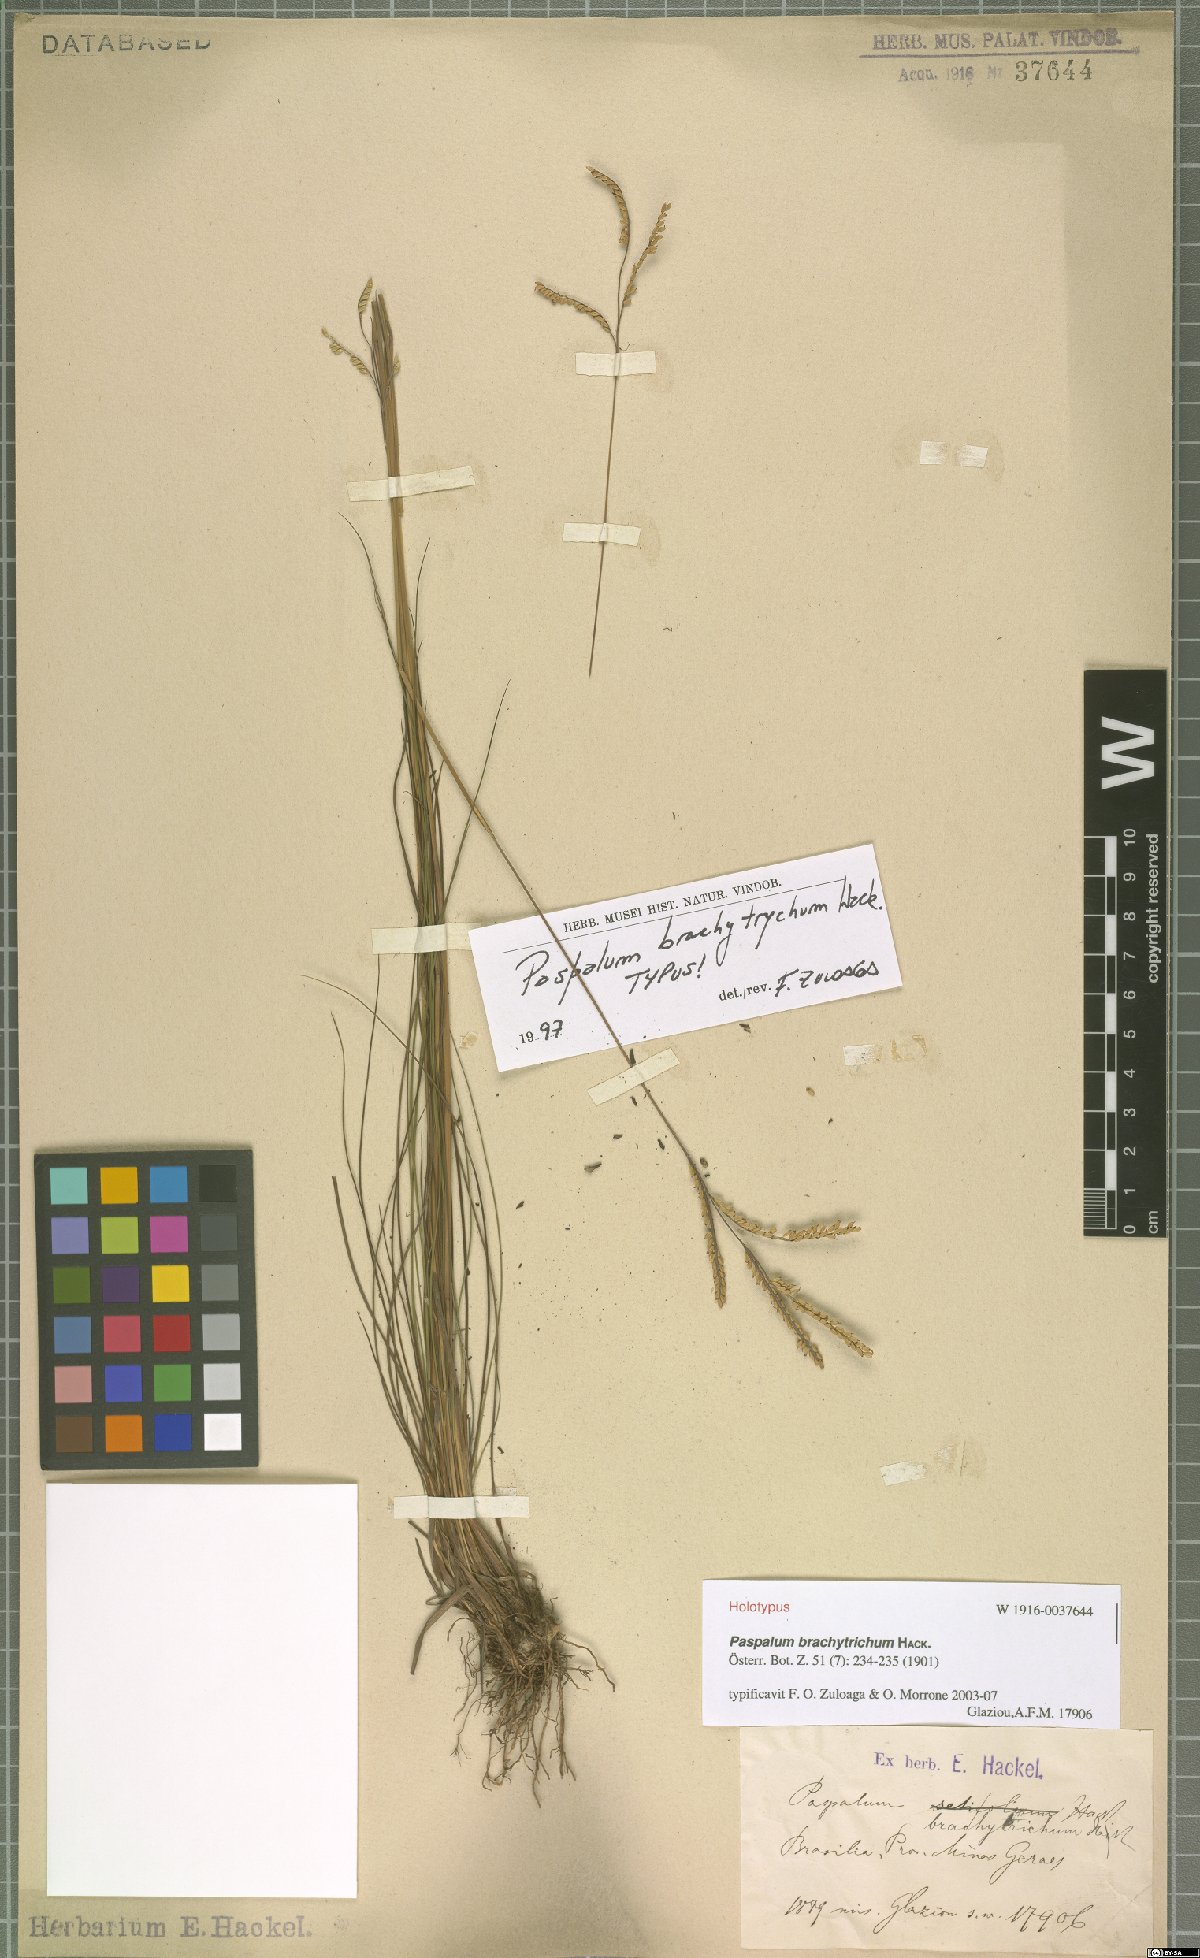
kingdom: Plantae
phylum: Tracheophyta
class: Liliopsida
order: Poales
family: Poaceae
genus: Paspalum
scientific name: Paspalum brachytrichum
